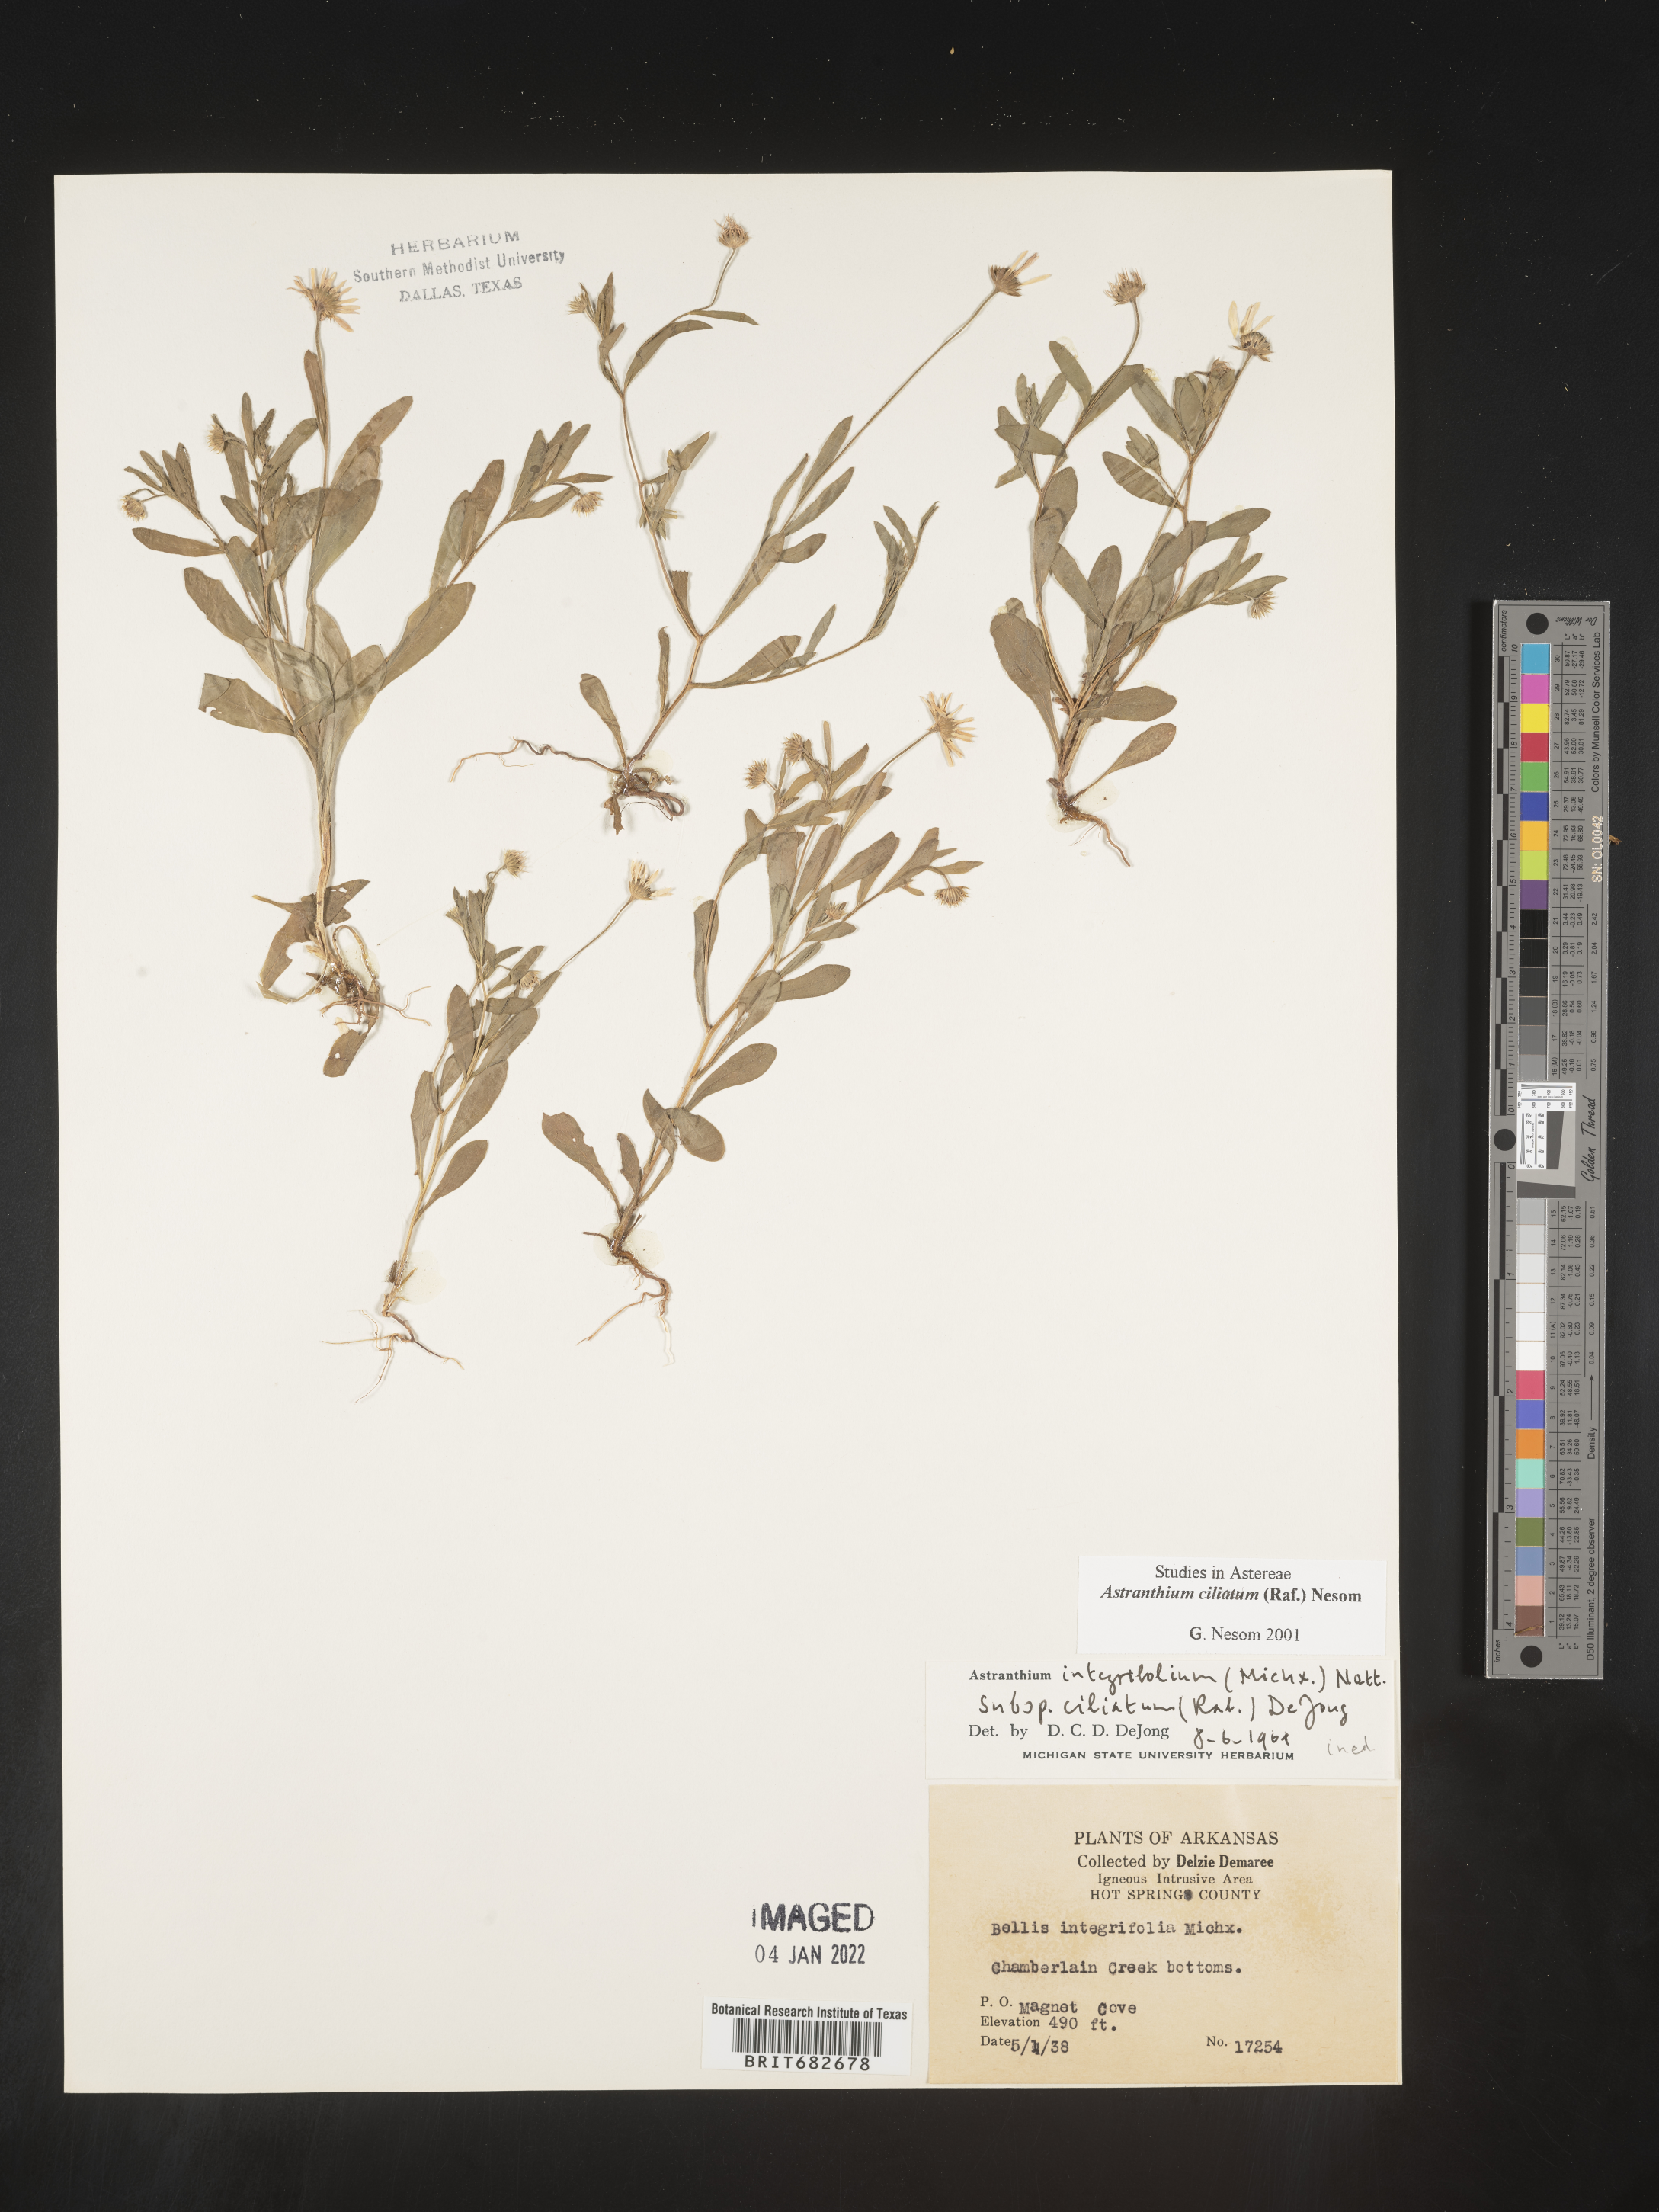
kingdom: Plantae
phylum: Tracheophyta
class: Magnoliopsida
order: Asterales
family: Asteraceae
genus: Astranthium
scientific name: Astranthium ciliatum
